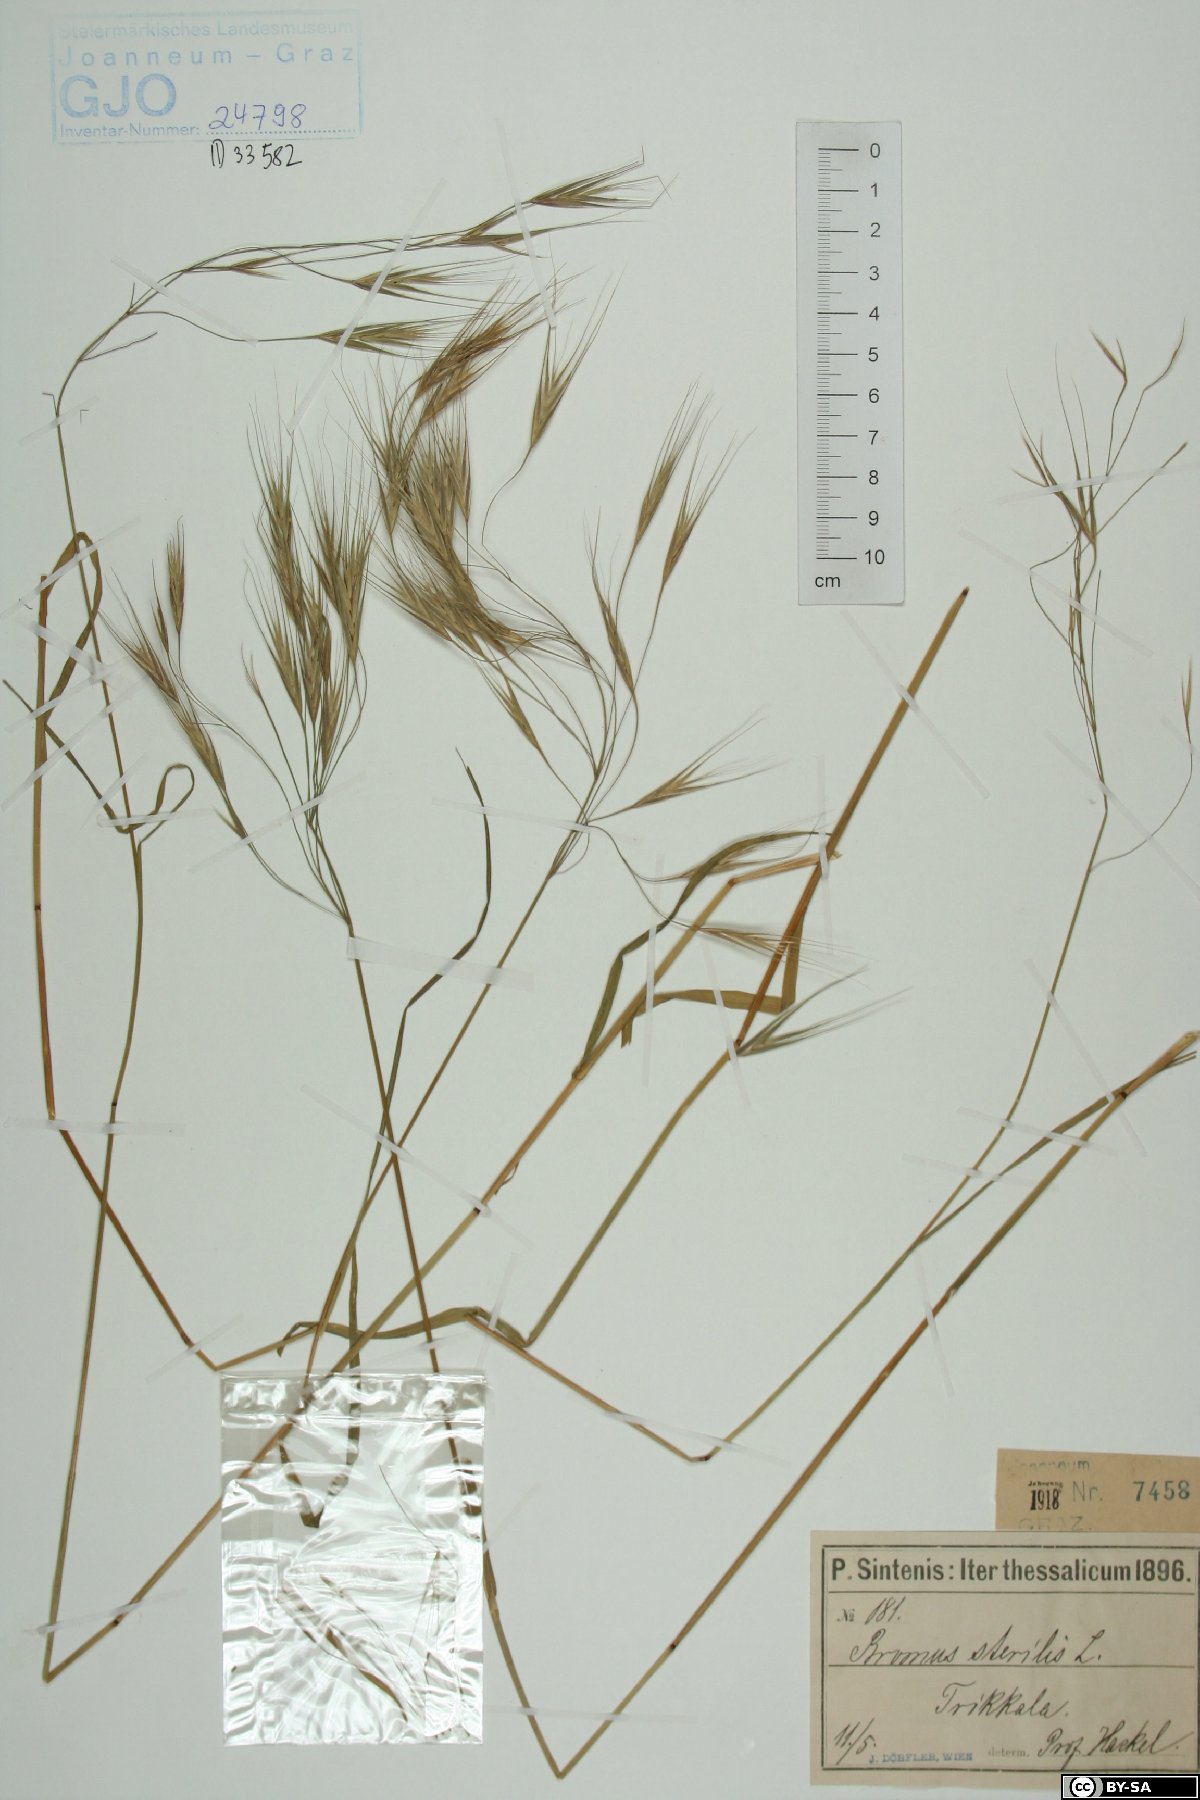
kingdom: Plantae
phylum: Tracheophyta
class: Liliopsida
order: Poales
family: Poaceae
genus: Bromus
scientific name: Bromus sterilis
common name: Poverty brome
